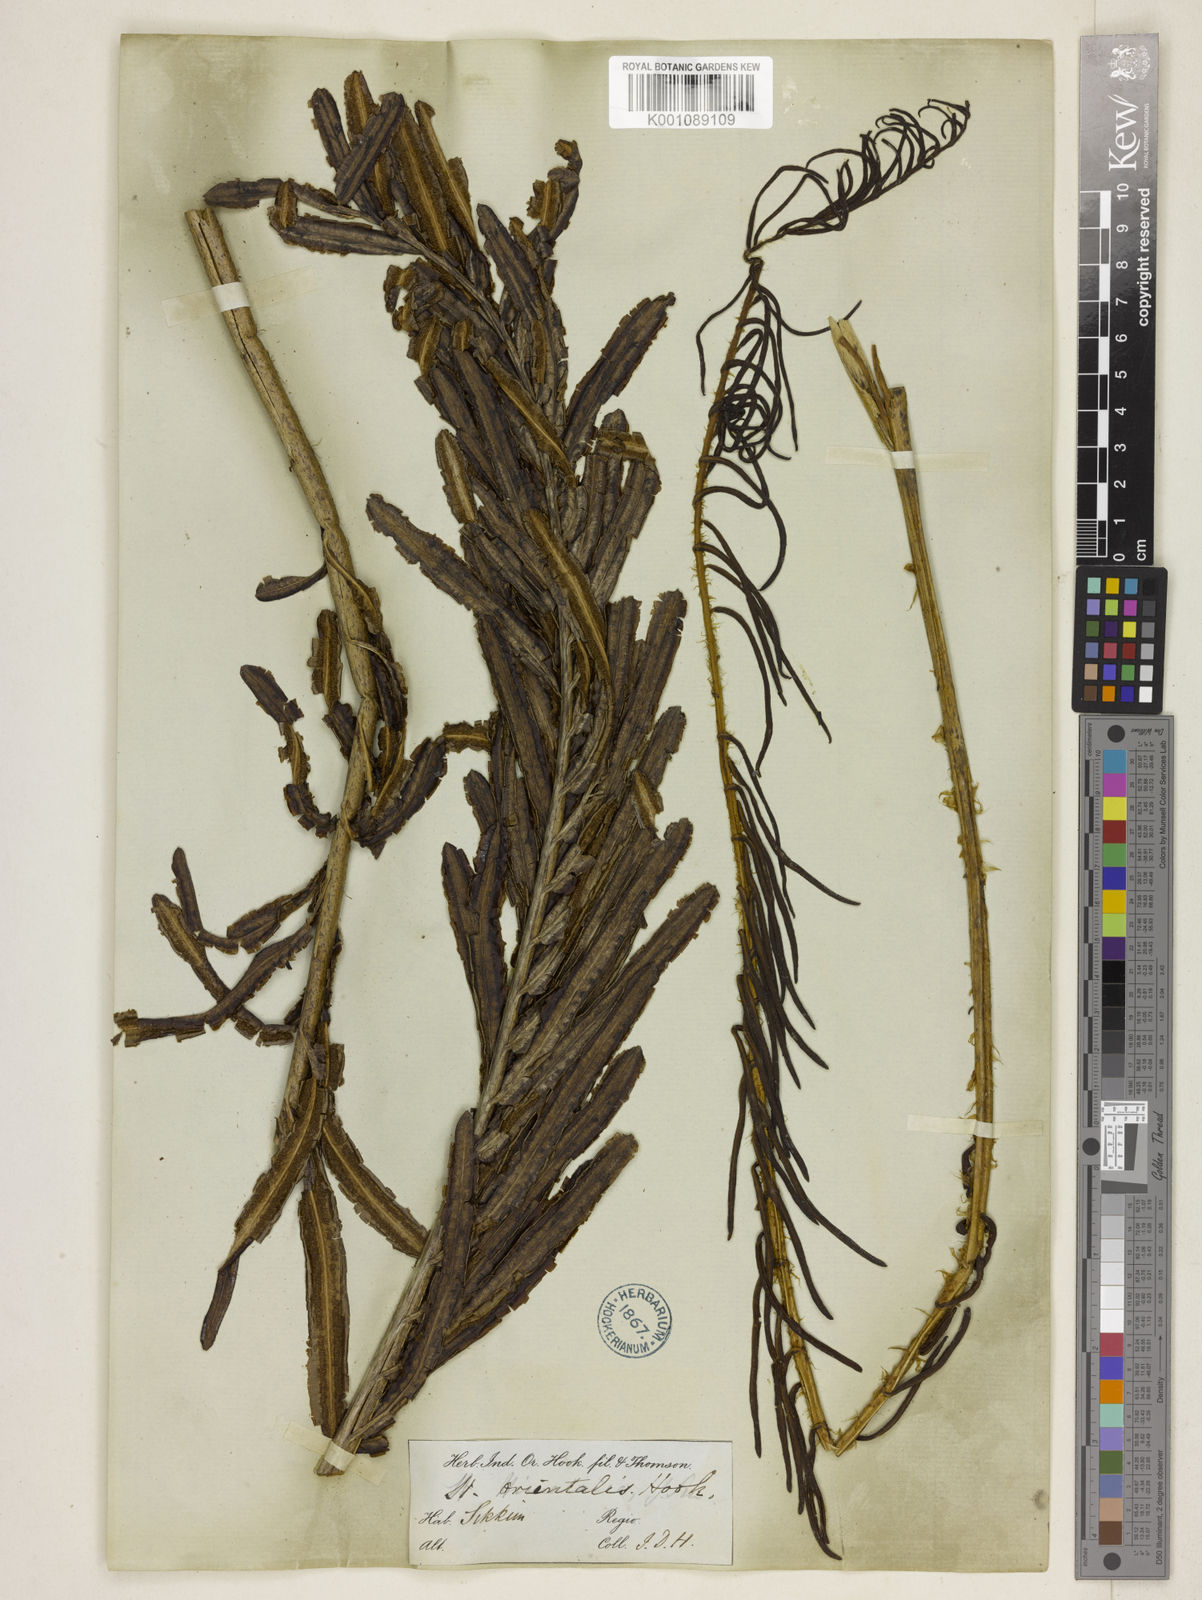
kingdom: Plantae
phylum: Tracheophyta
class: Polypodiopsida
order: Polypodiales
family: Onocleaceae
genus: Pentarhizidium
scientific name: Pentarhizidium intermedium
